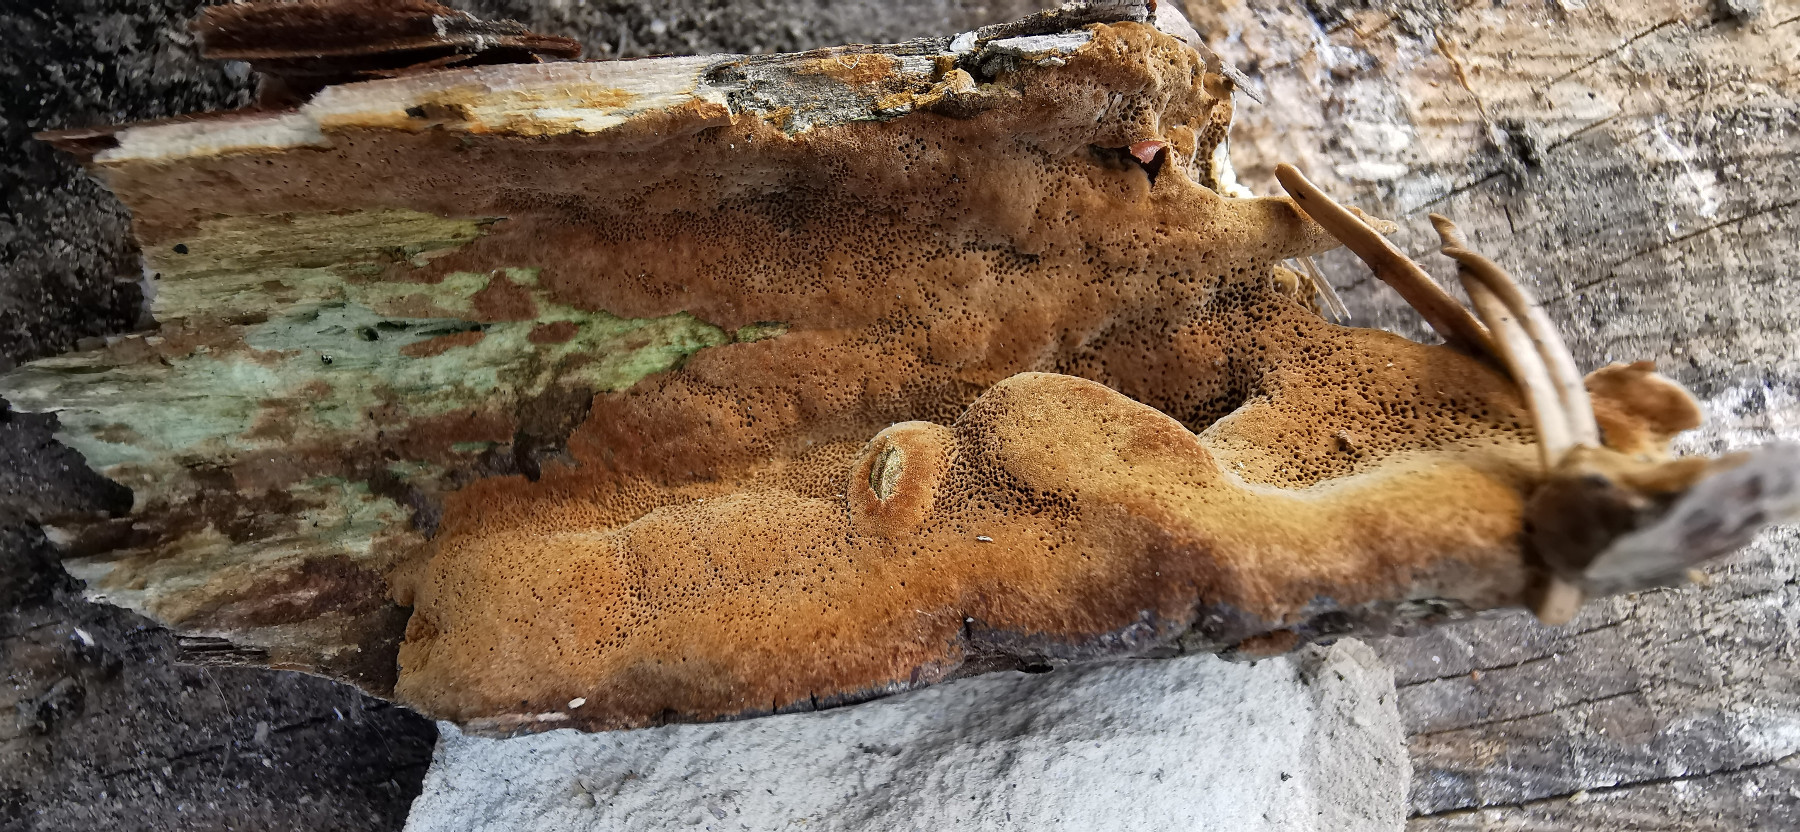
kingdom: Fungi
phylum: Basidiomycota
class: Agaricomycetes
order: Hymenochaetales
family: Hymenochaetaceae
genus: Fuscoporia
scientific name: Fuscoporia ferrea
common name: skorpe-ildporesvamp
